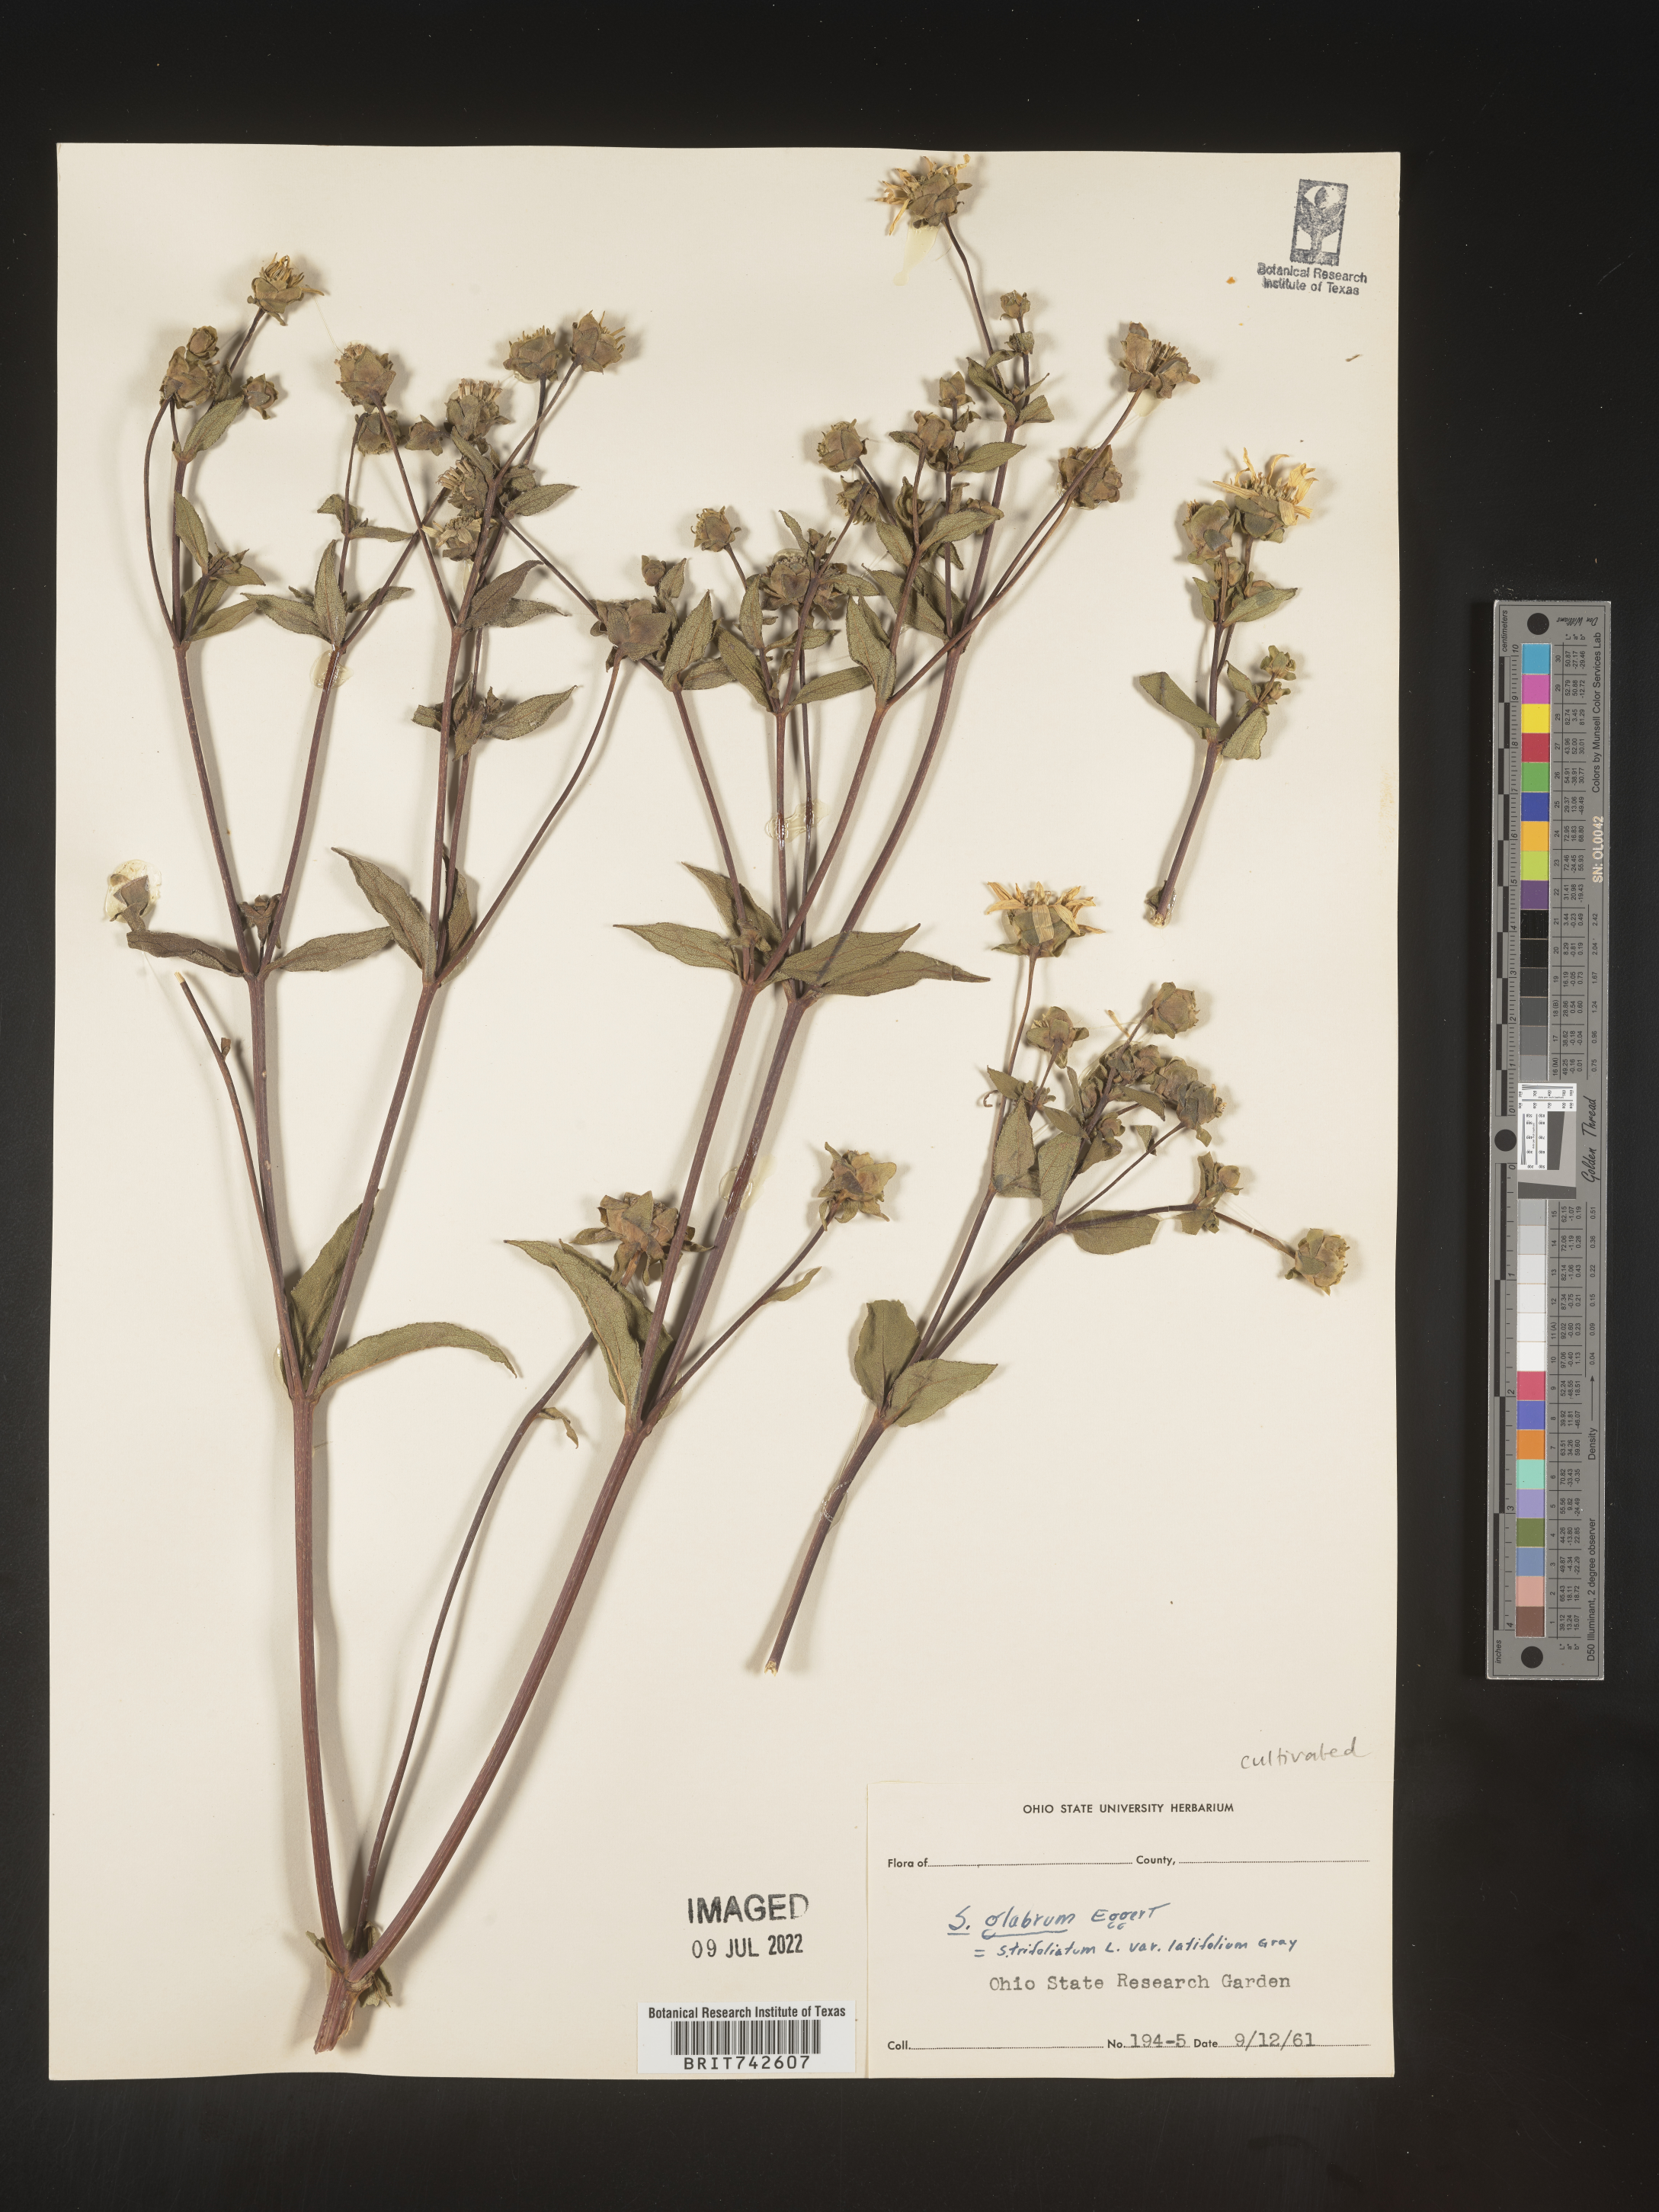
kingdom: Plantae
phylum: Tracheophyta
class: Magnoliopsida
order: Asterales
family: Asteraceae
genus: Silphium
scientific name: Silphium
